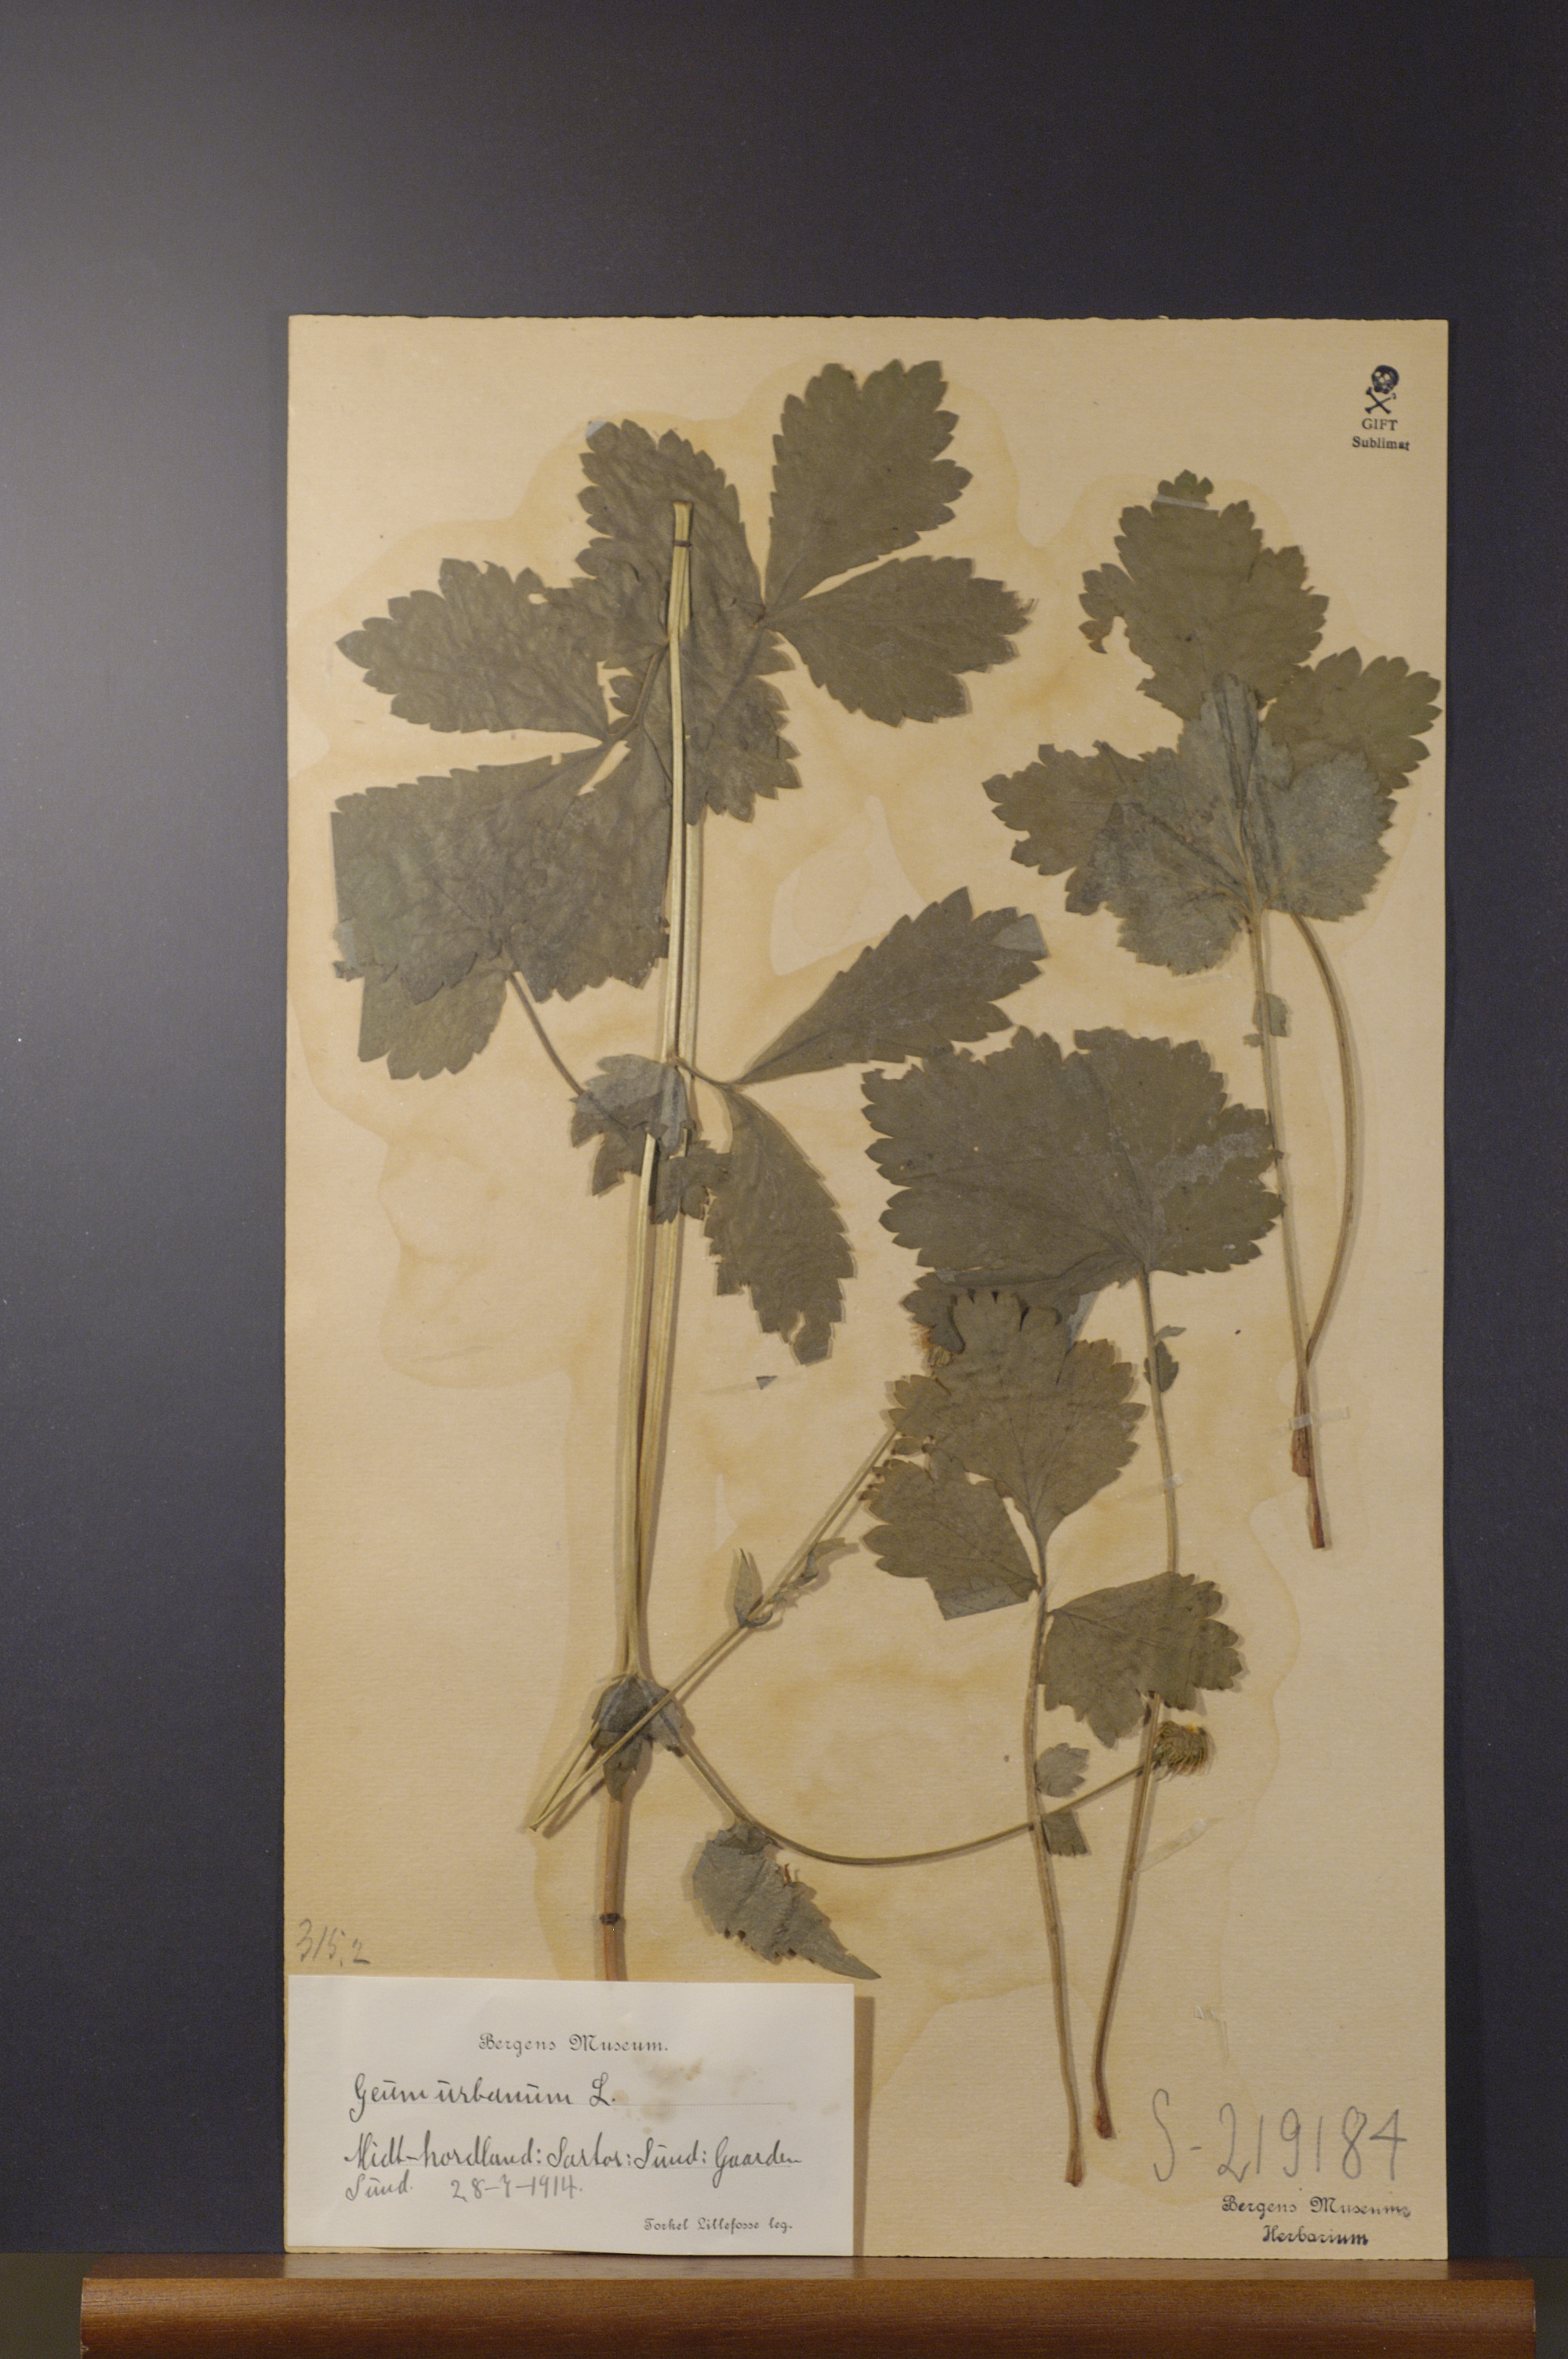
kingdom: Plantae
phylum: Tracheophyta
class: Magnoliopsida
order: Rosales
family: Rosaceae
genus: Geum
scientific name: Geum urbanum
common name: Wood avens
